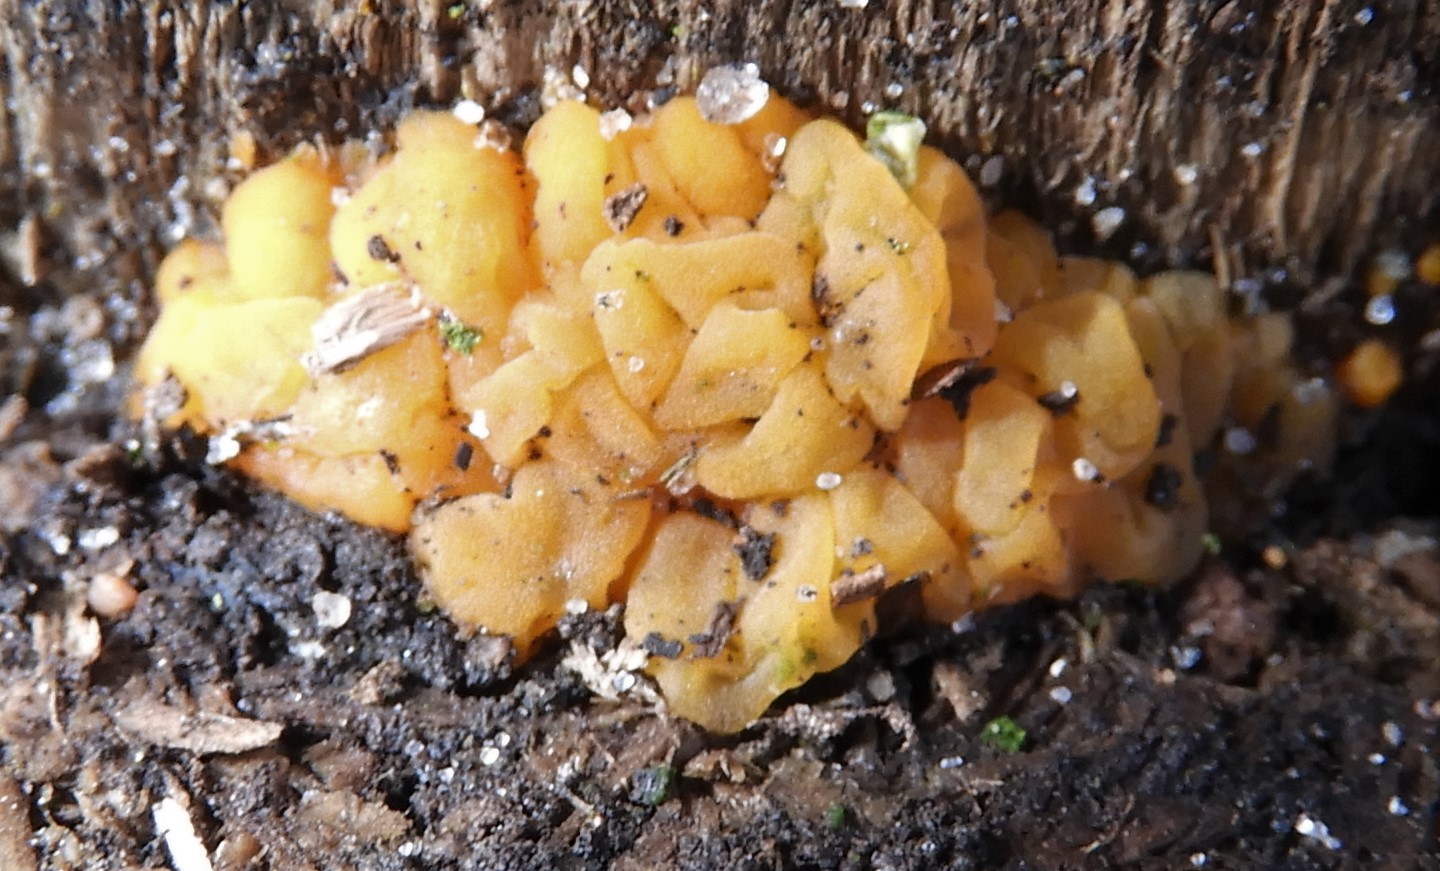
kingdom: Fungi
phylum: Basidiomycota
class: Dacrymycetes
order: Dacrymycetales
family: Dacrymycetaceae
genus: Dacrymyces
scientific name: Dacrymyces lacrymalis
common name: rynket tåresvamp
